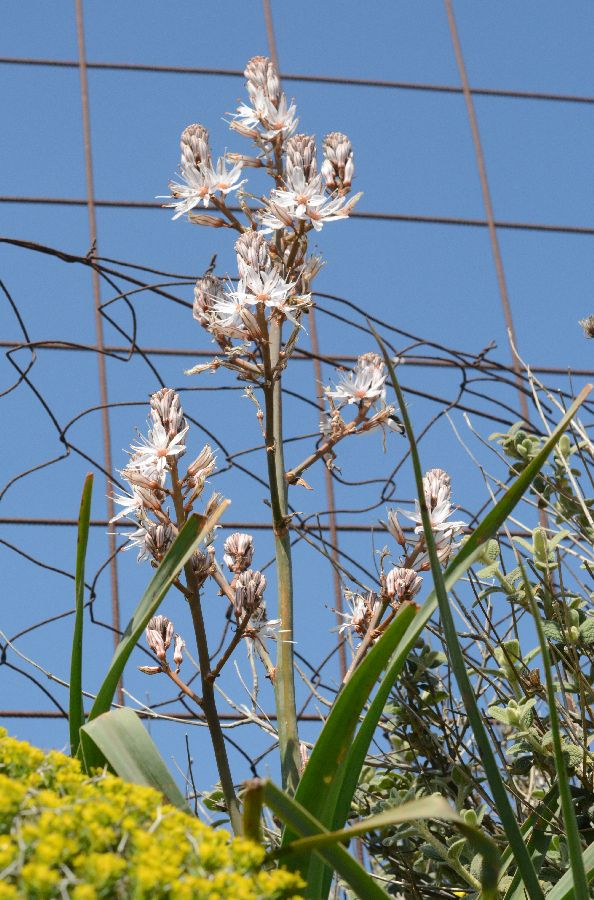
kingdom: Plantae
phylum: Tracheophyta
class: Liliopsida
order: Asparagales
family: Asphodelaceae
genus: Asphodelus
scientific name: Asphodelus ramosus
